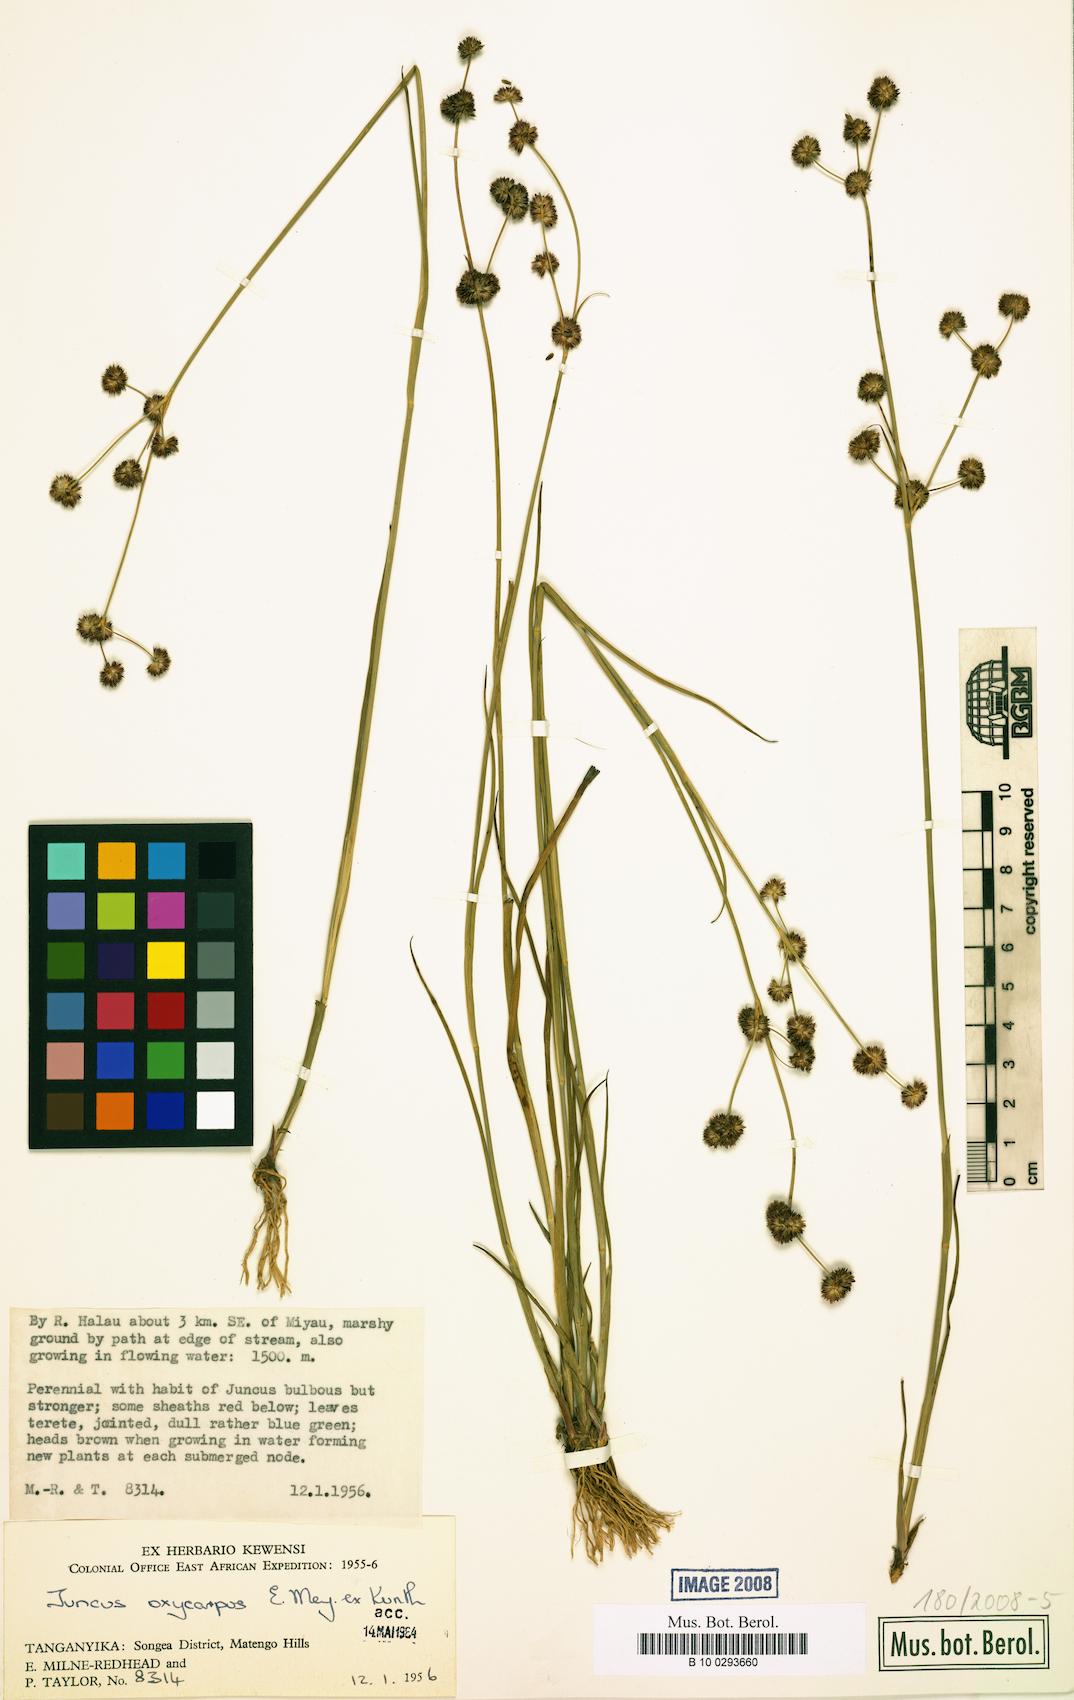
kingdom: Plantae
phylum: Tracheophyta
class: Liliopsida
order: Poales
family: Juncaceae
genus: Juncus
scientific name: Juncus oxycarpus
